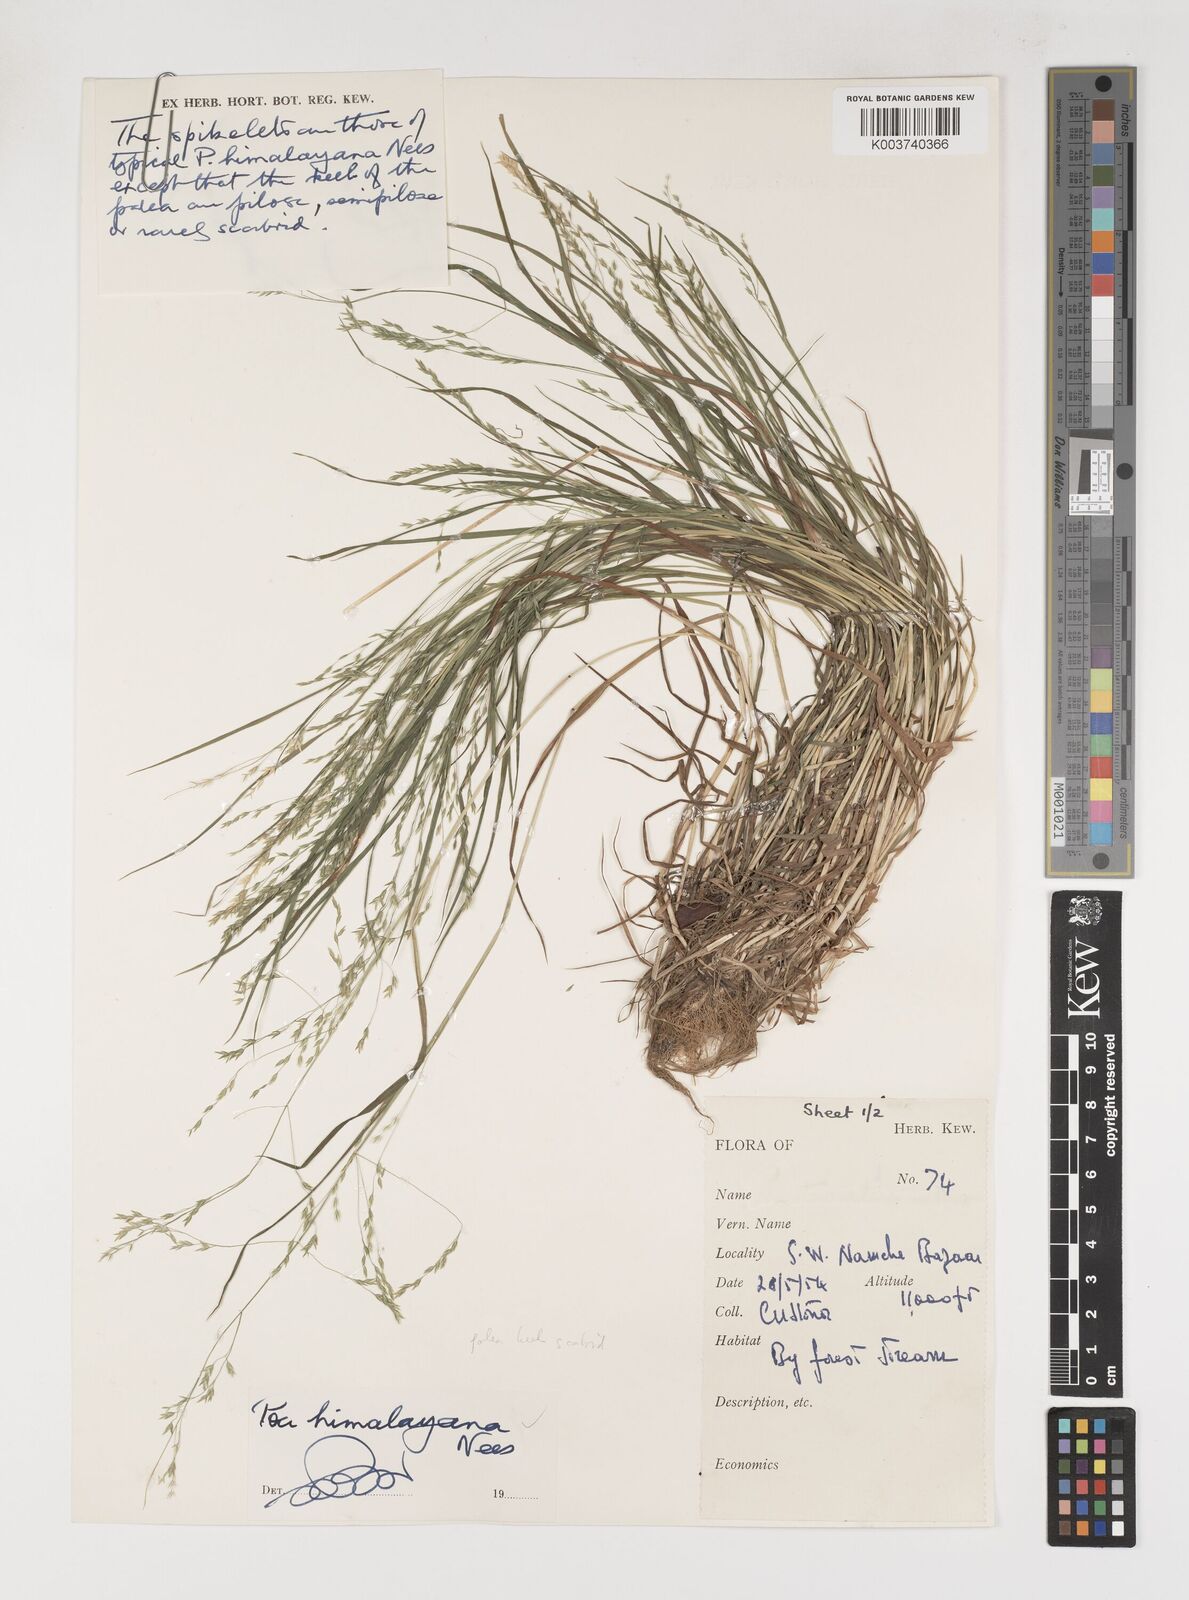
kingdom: Plantae
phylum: Tracheophyta
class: Liliopsida
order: Poales
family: Poaceae
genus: Poa
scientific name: Poa himalayana
